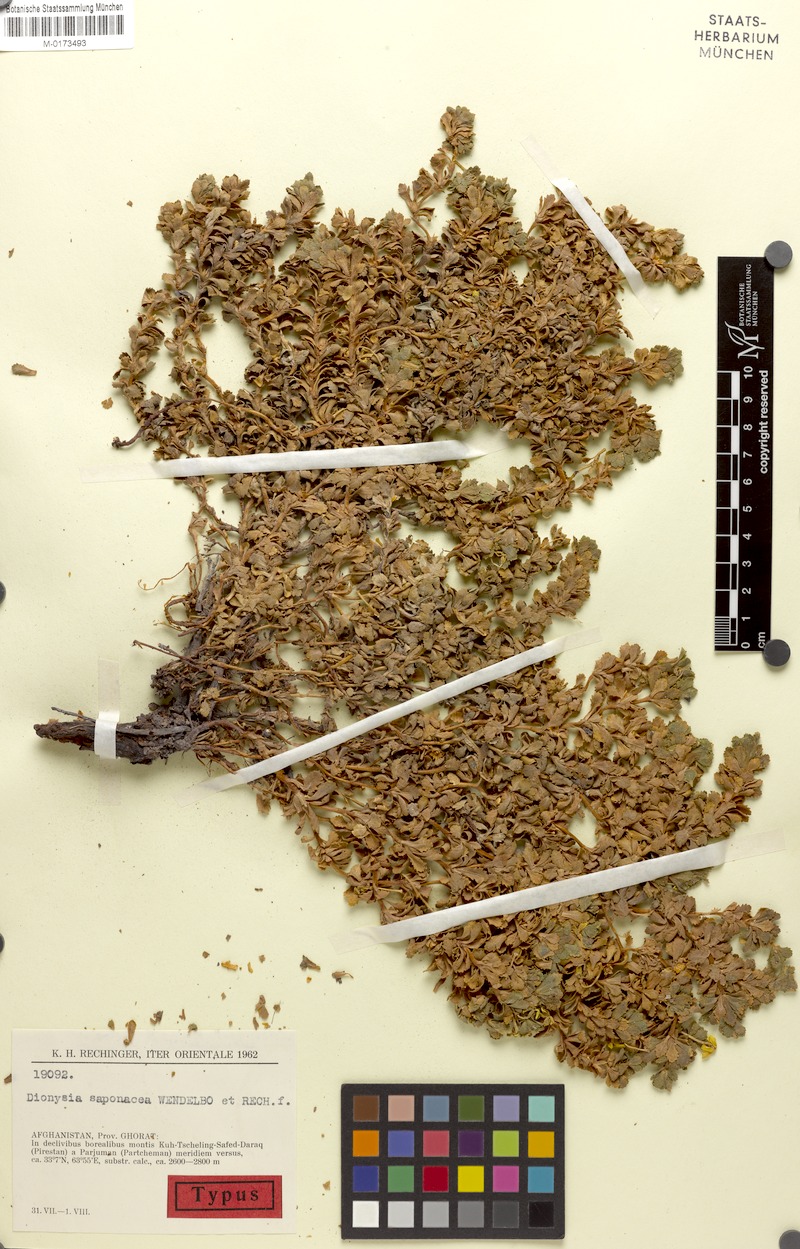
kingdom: Plantae
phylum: Tracheophyta
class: Magnoliopsida
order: Ericales
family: Primulaceae
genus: Dionysia
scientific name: Dionysia saponacea
